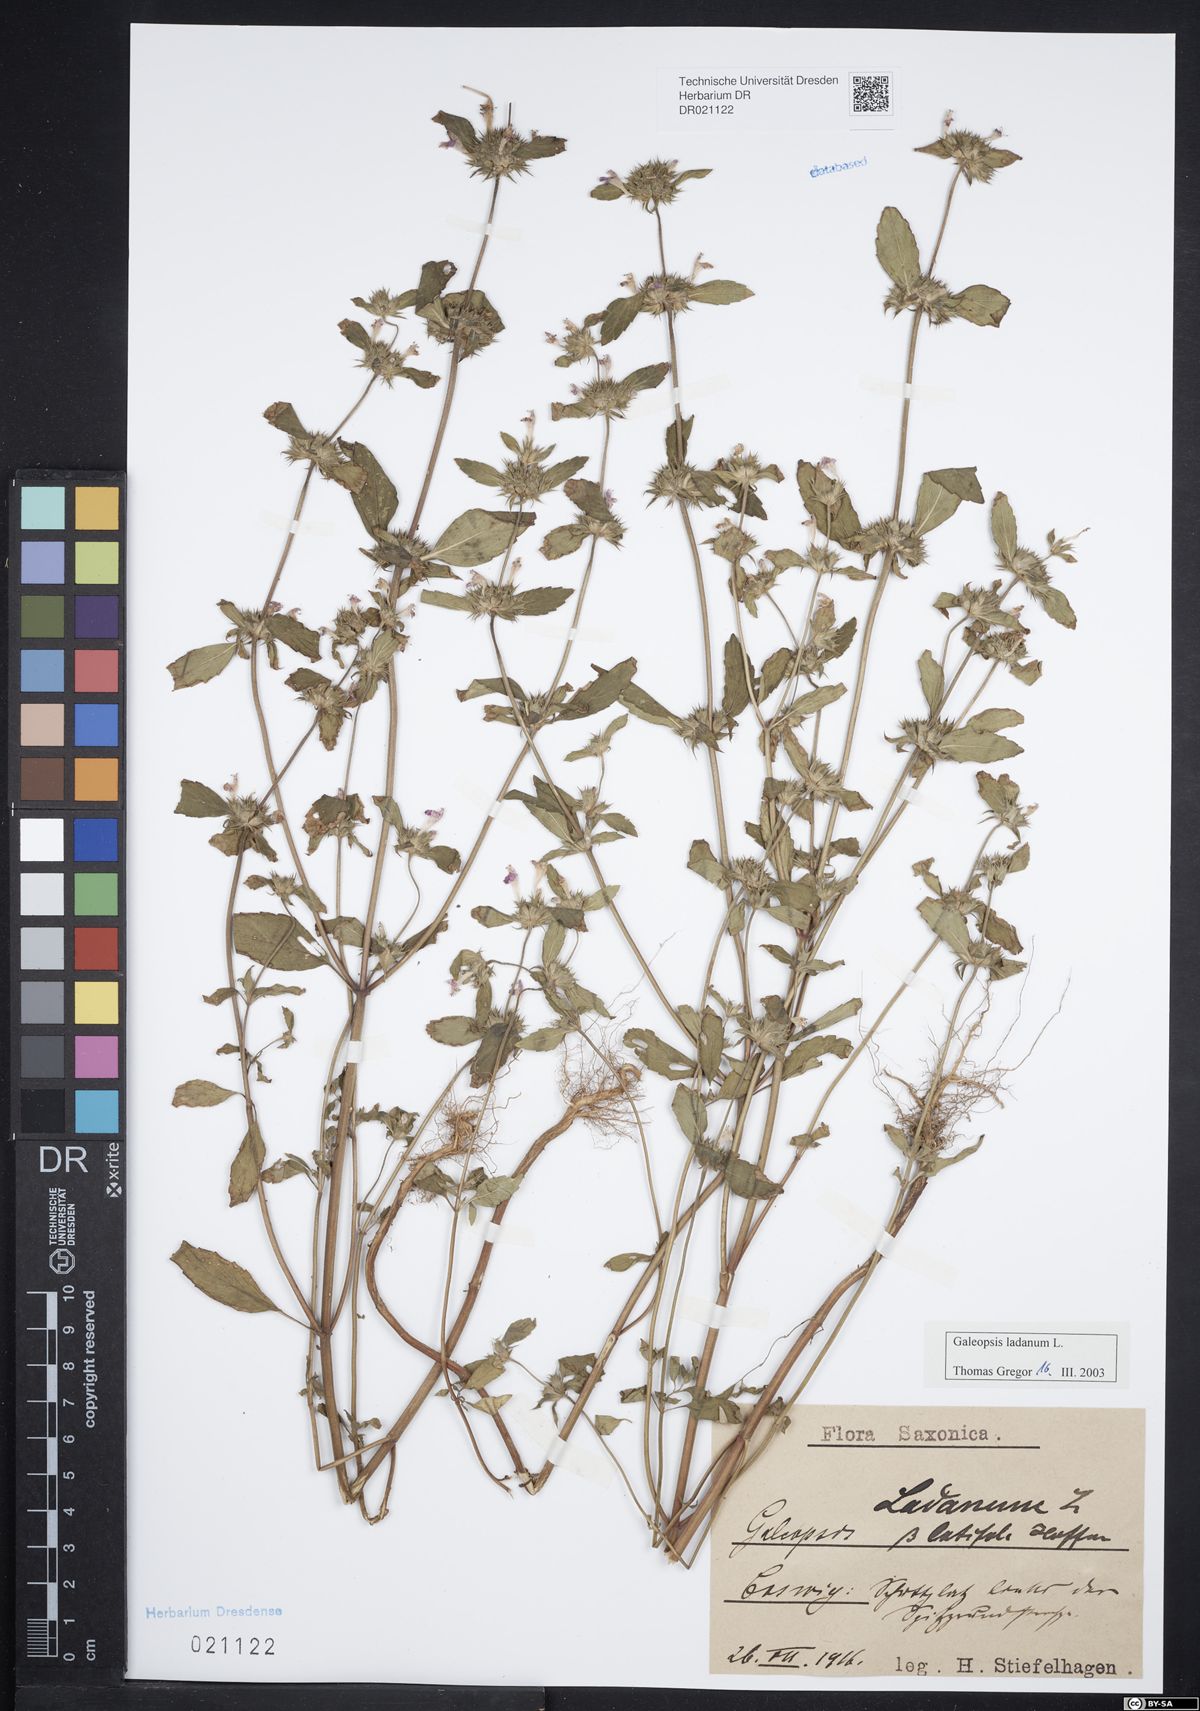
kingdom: Plantae
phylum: Tracheophyta
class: Magnoliopsida
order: Lamiales
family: Lamiaceae
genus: Galeopsis
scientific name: Galeopsis ladanum
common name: Broad-leaved hemp-nettle
